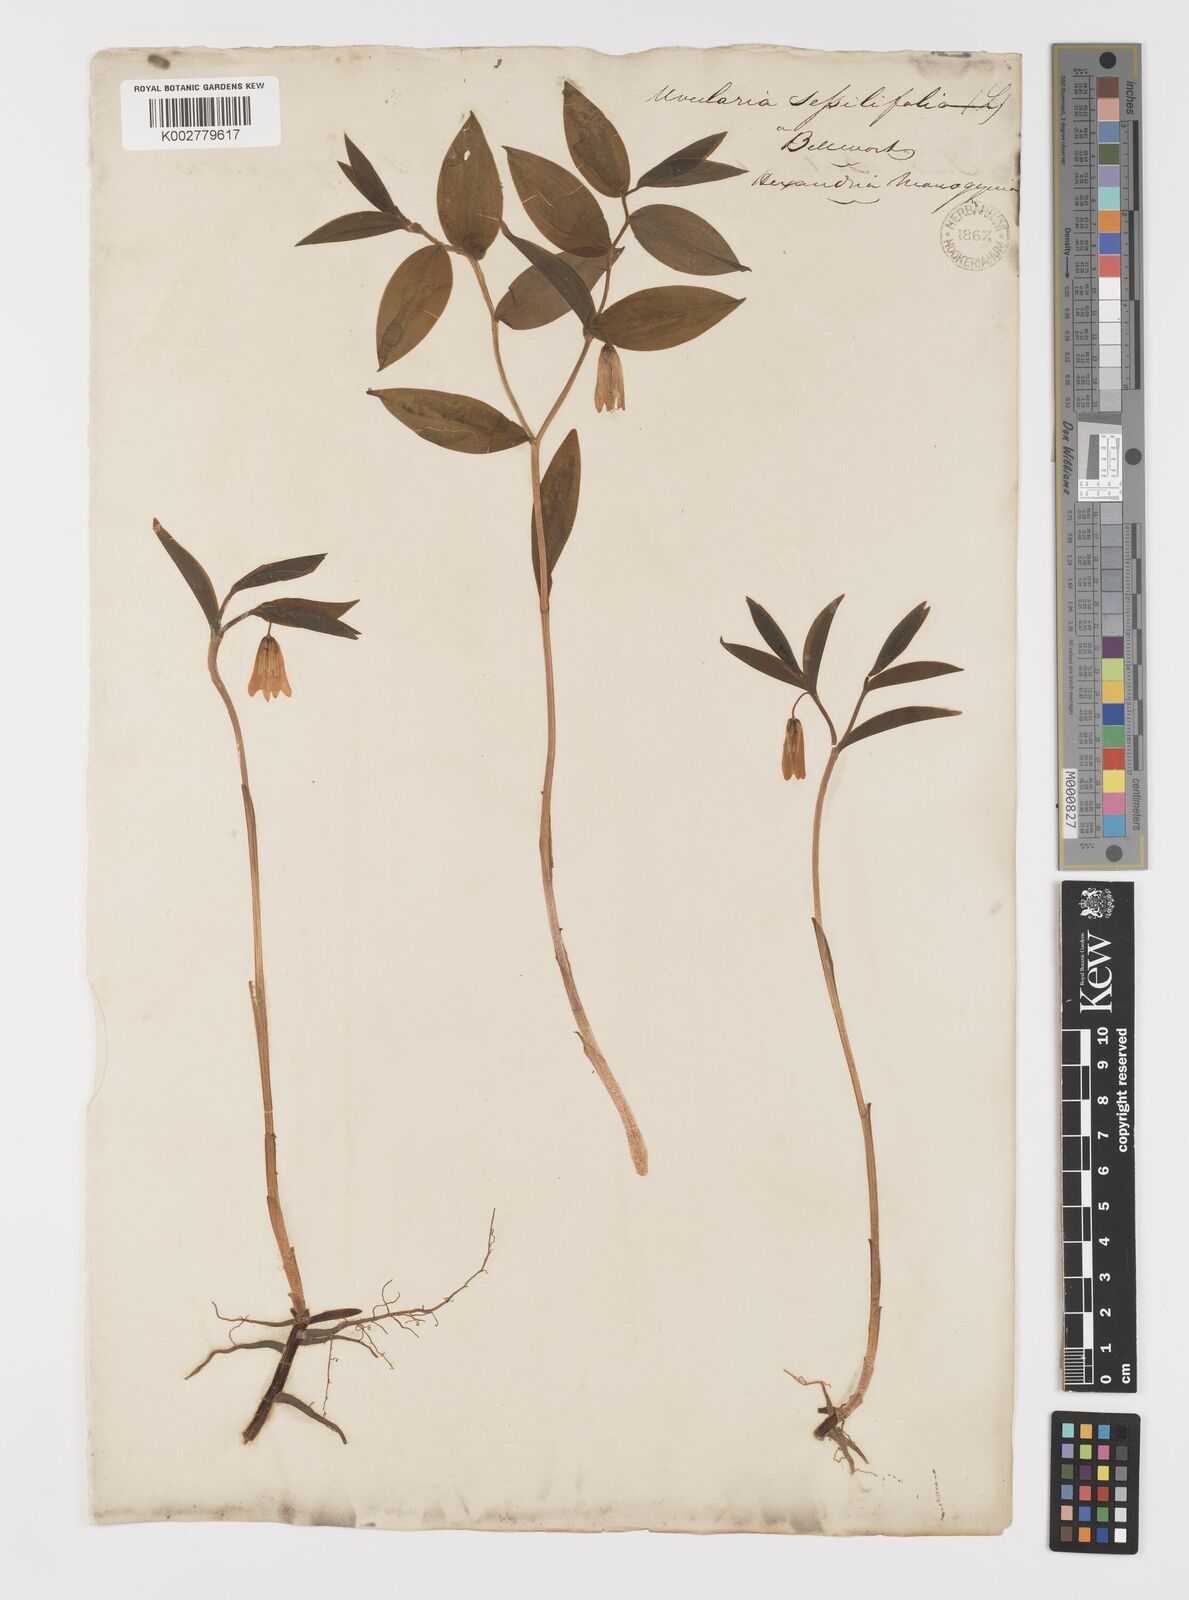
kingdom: Plantae
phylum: Tracheophyta
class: Liliopsida
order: Liliales
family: Colchicaceae
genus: Uvularia
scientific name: Uvularia sessilifolia
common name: Straw-lily
